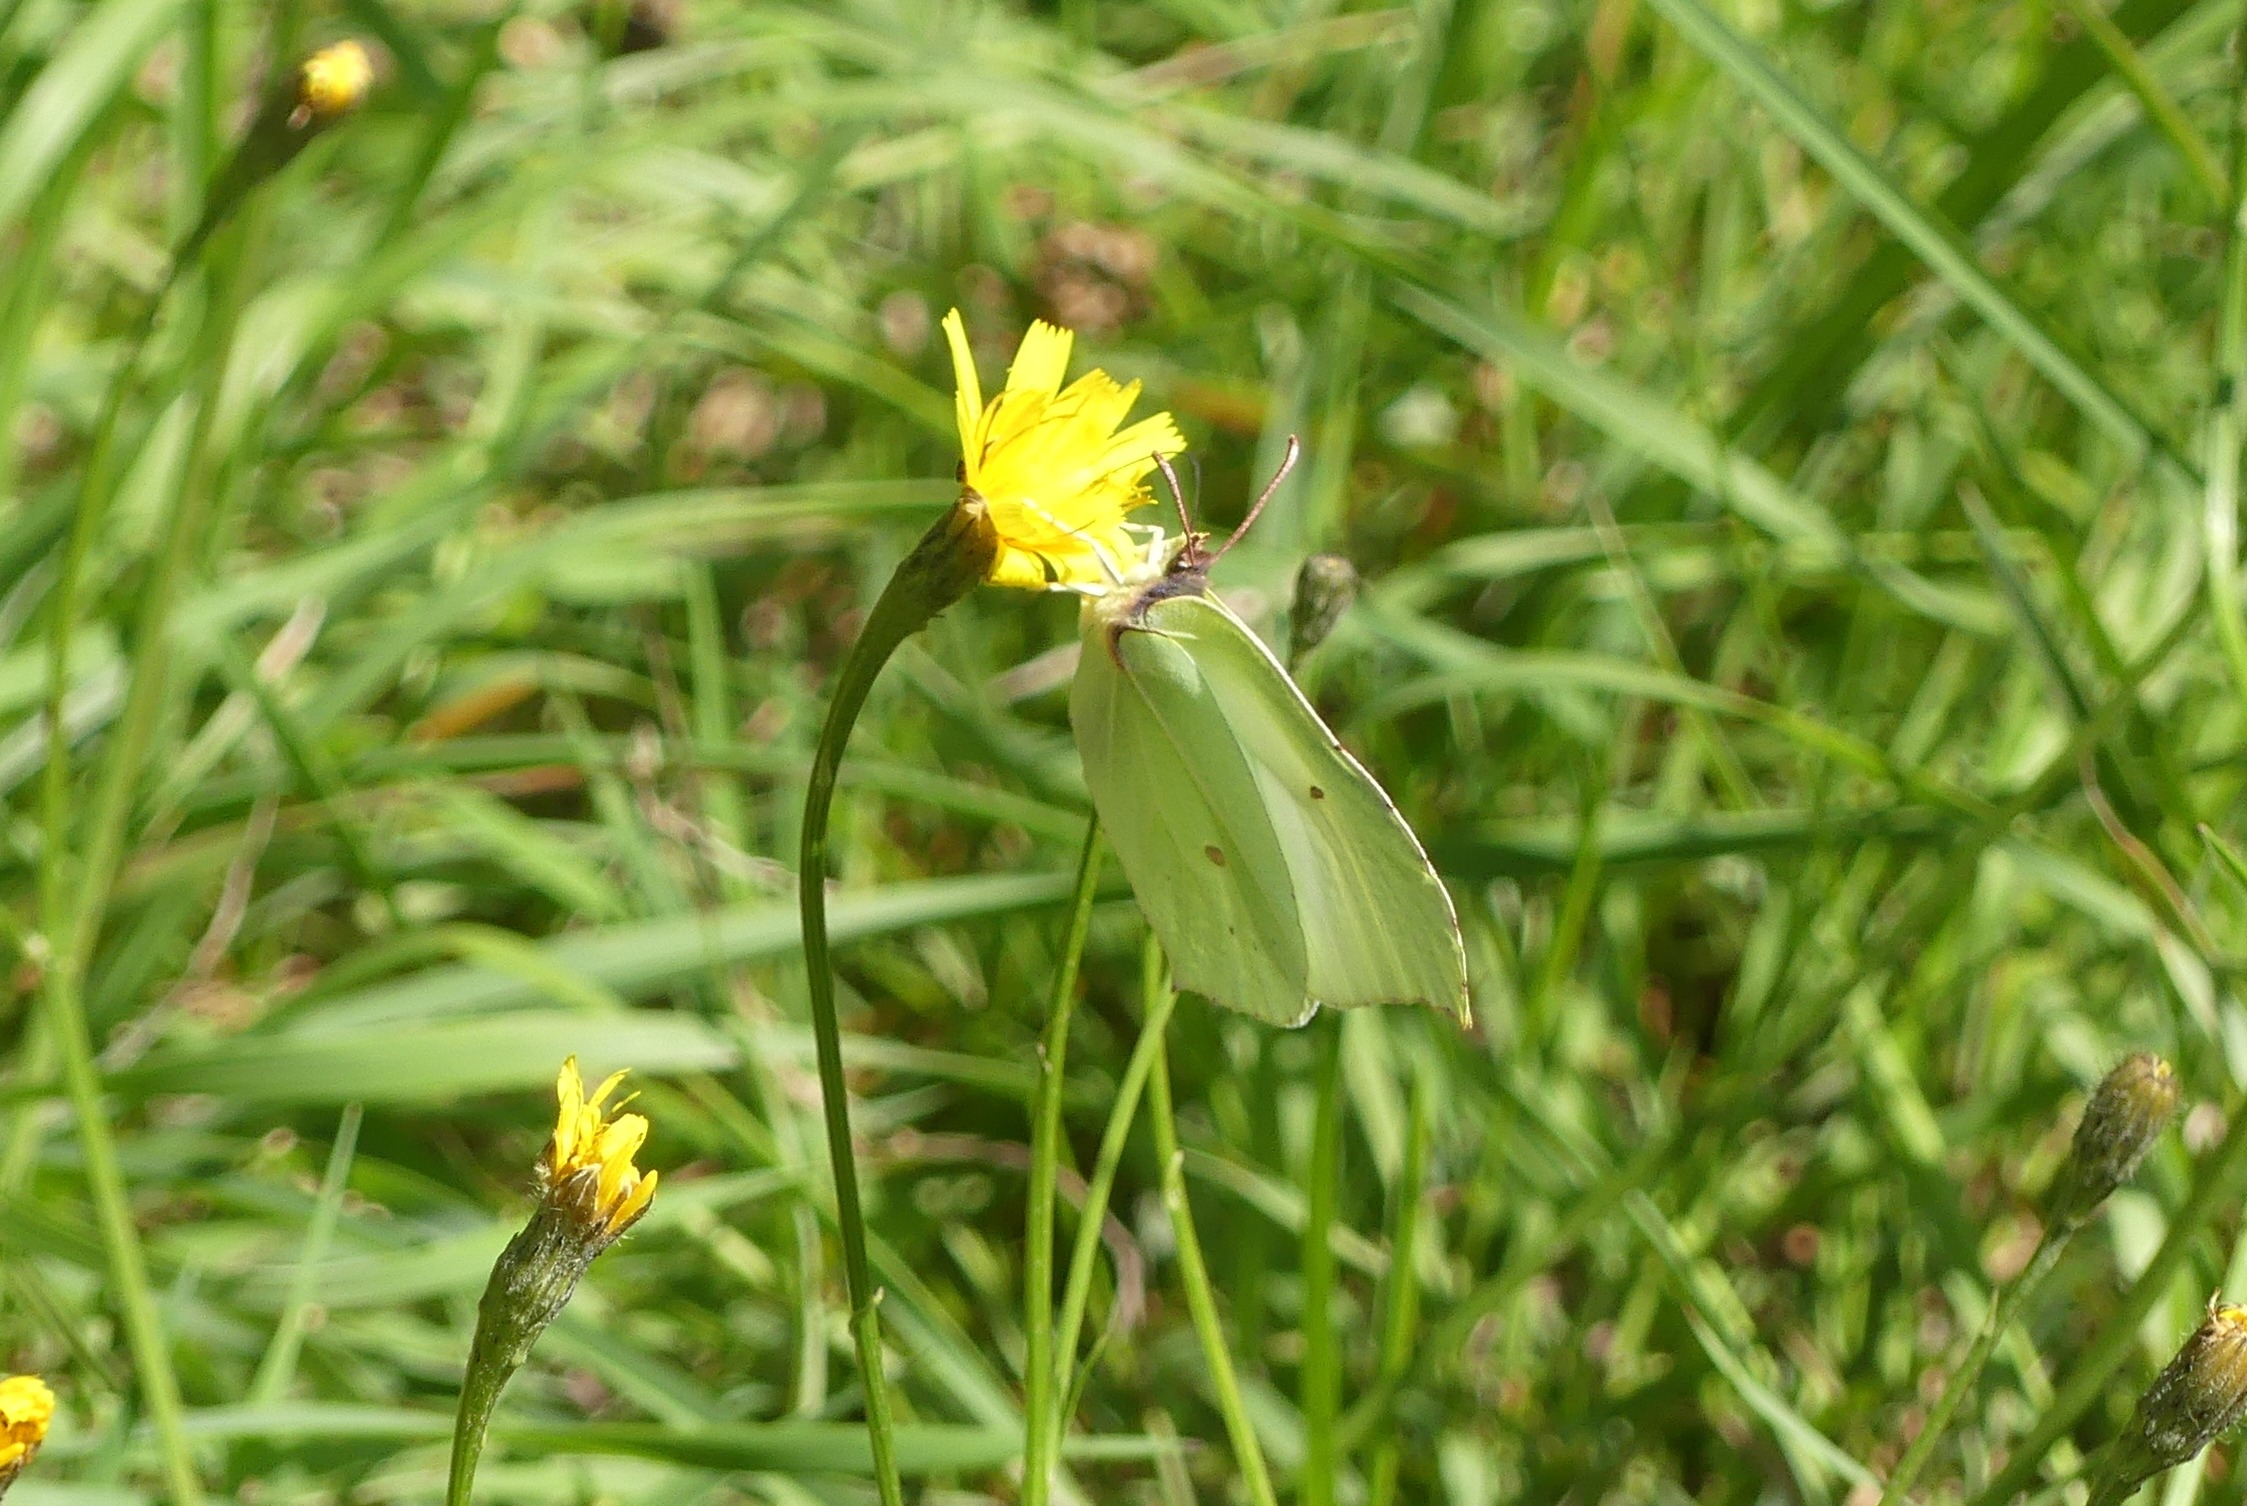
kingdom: Animalia
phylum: Arthropoda
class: Insecta
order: Lepidoptera
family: Pieridae
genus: Gonepteryx
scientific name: Gonepteryx rhamni
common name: Citronsommerfugl
